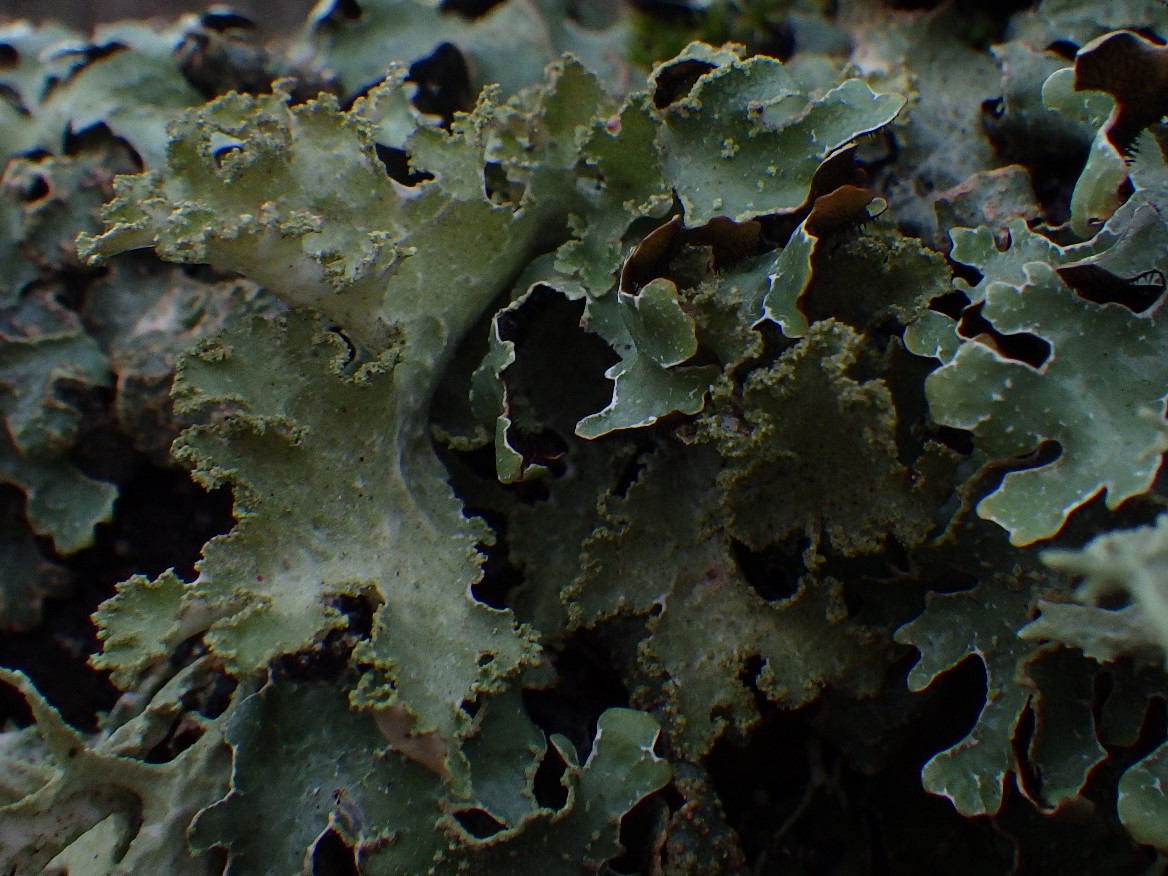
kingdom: Fungi
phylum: Ascomycota
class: Lecanoromycetes
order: Lecanorales
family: Parmeliaceae
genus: Platismatia
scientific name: Platismatia glauca
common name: blågrå papirlav
